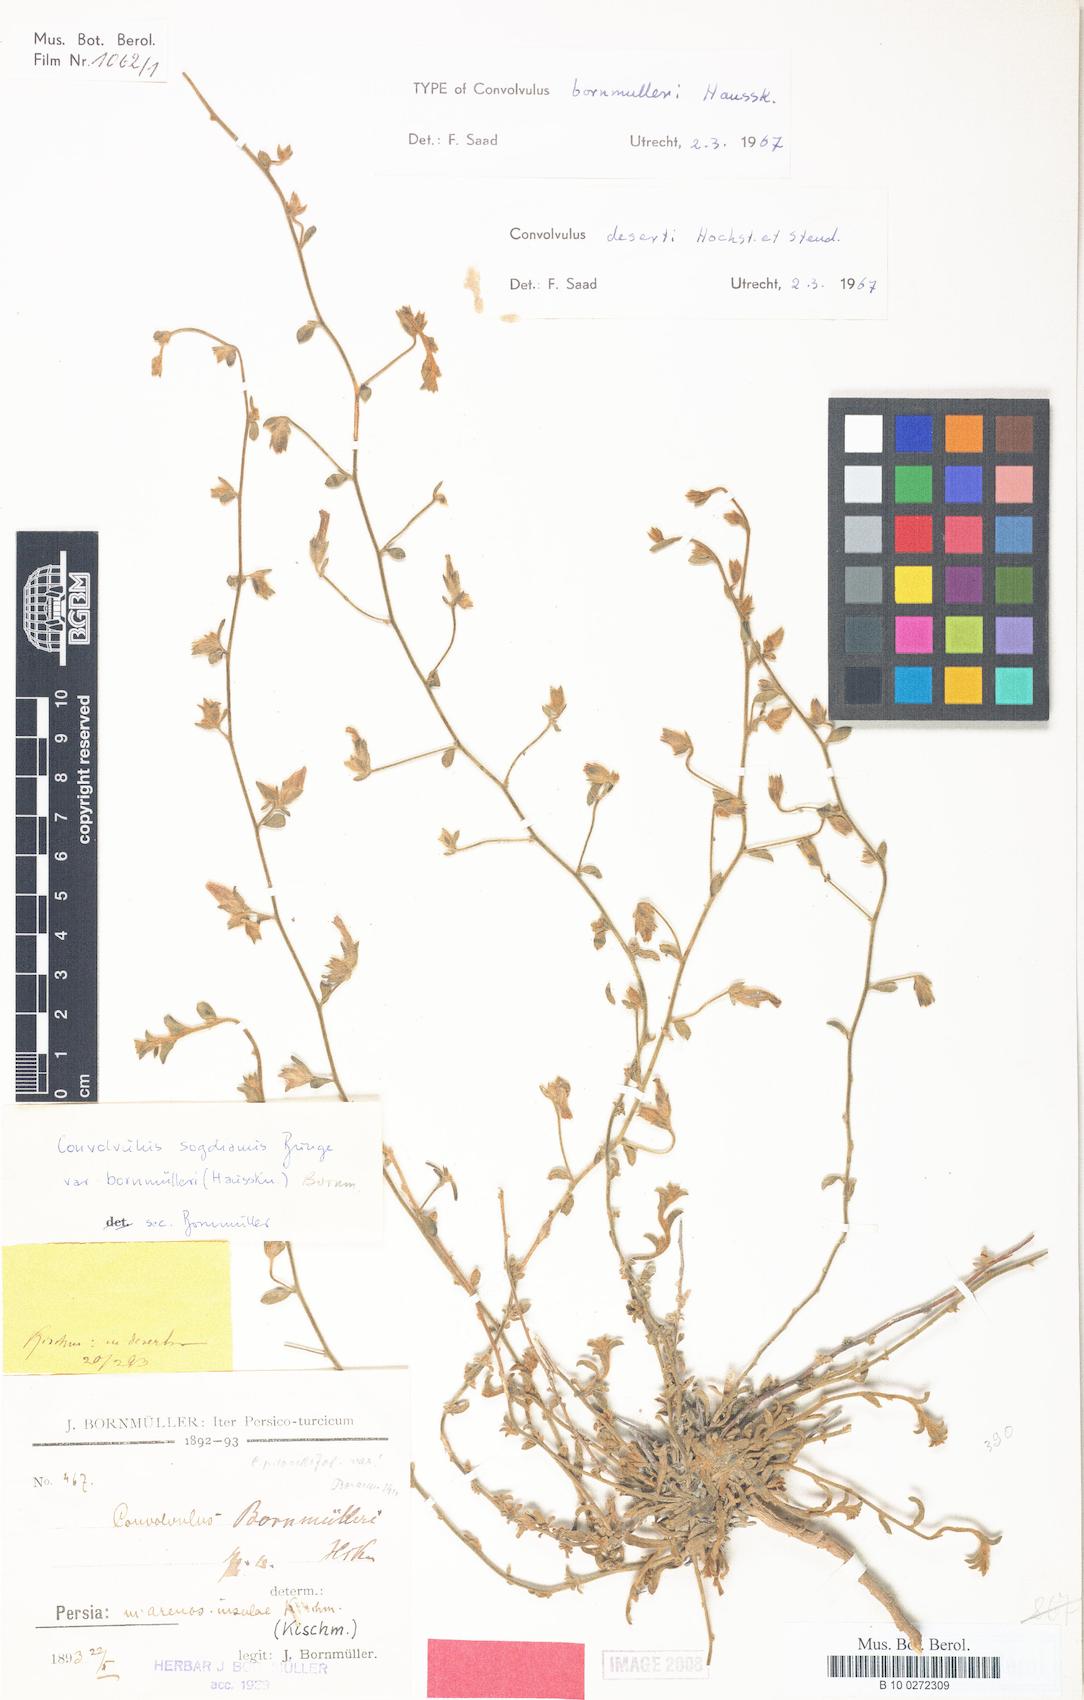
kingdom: Plantae
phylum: Tracheophyta
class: Magnoliopsida
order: Solanales
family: Convolvulaceae
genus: Convolvulus
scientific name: Convolvulus prostratus
